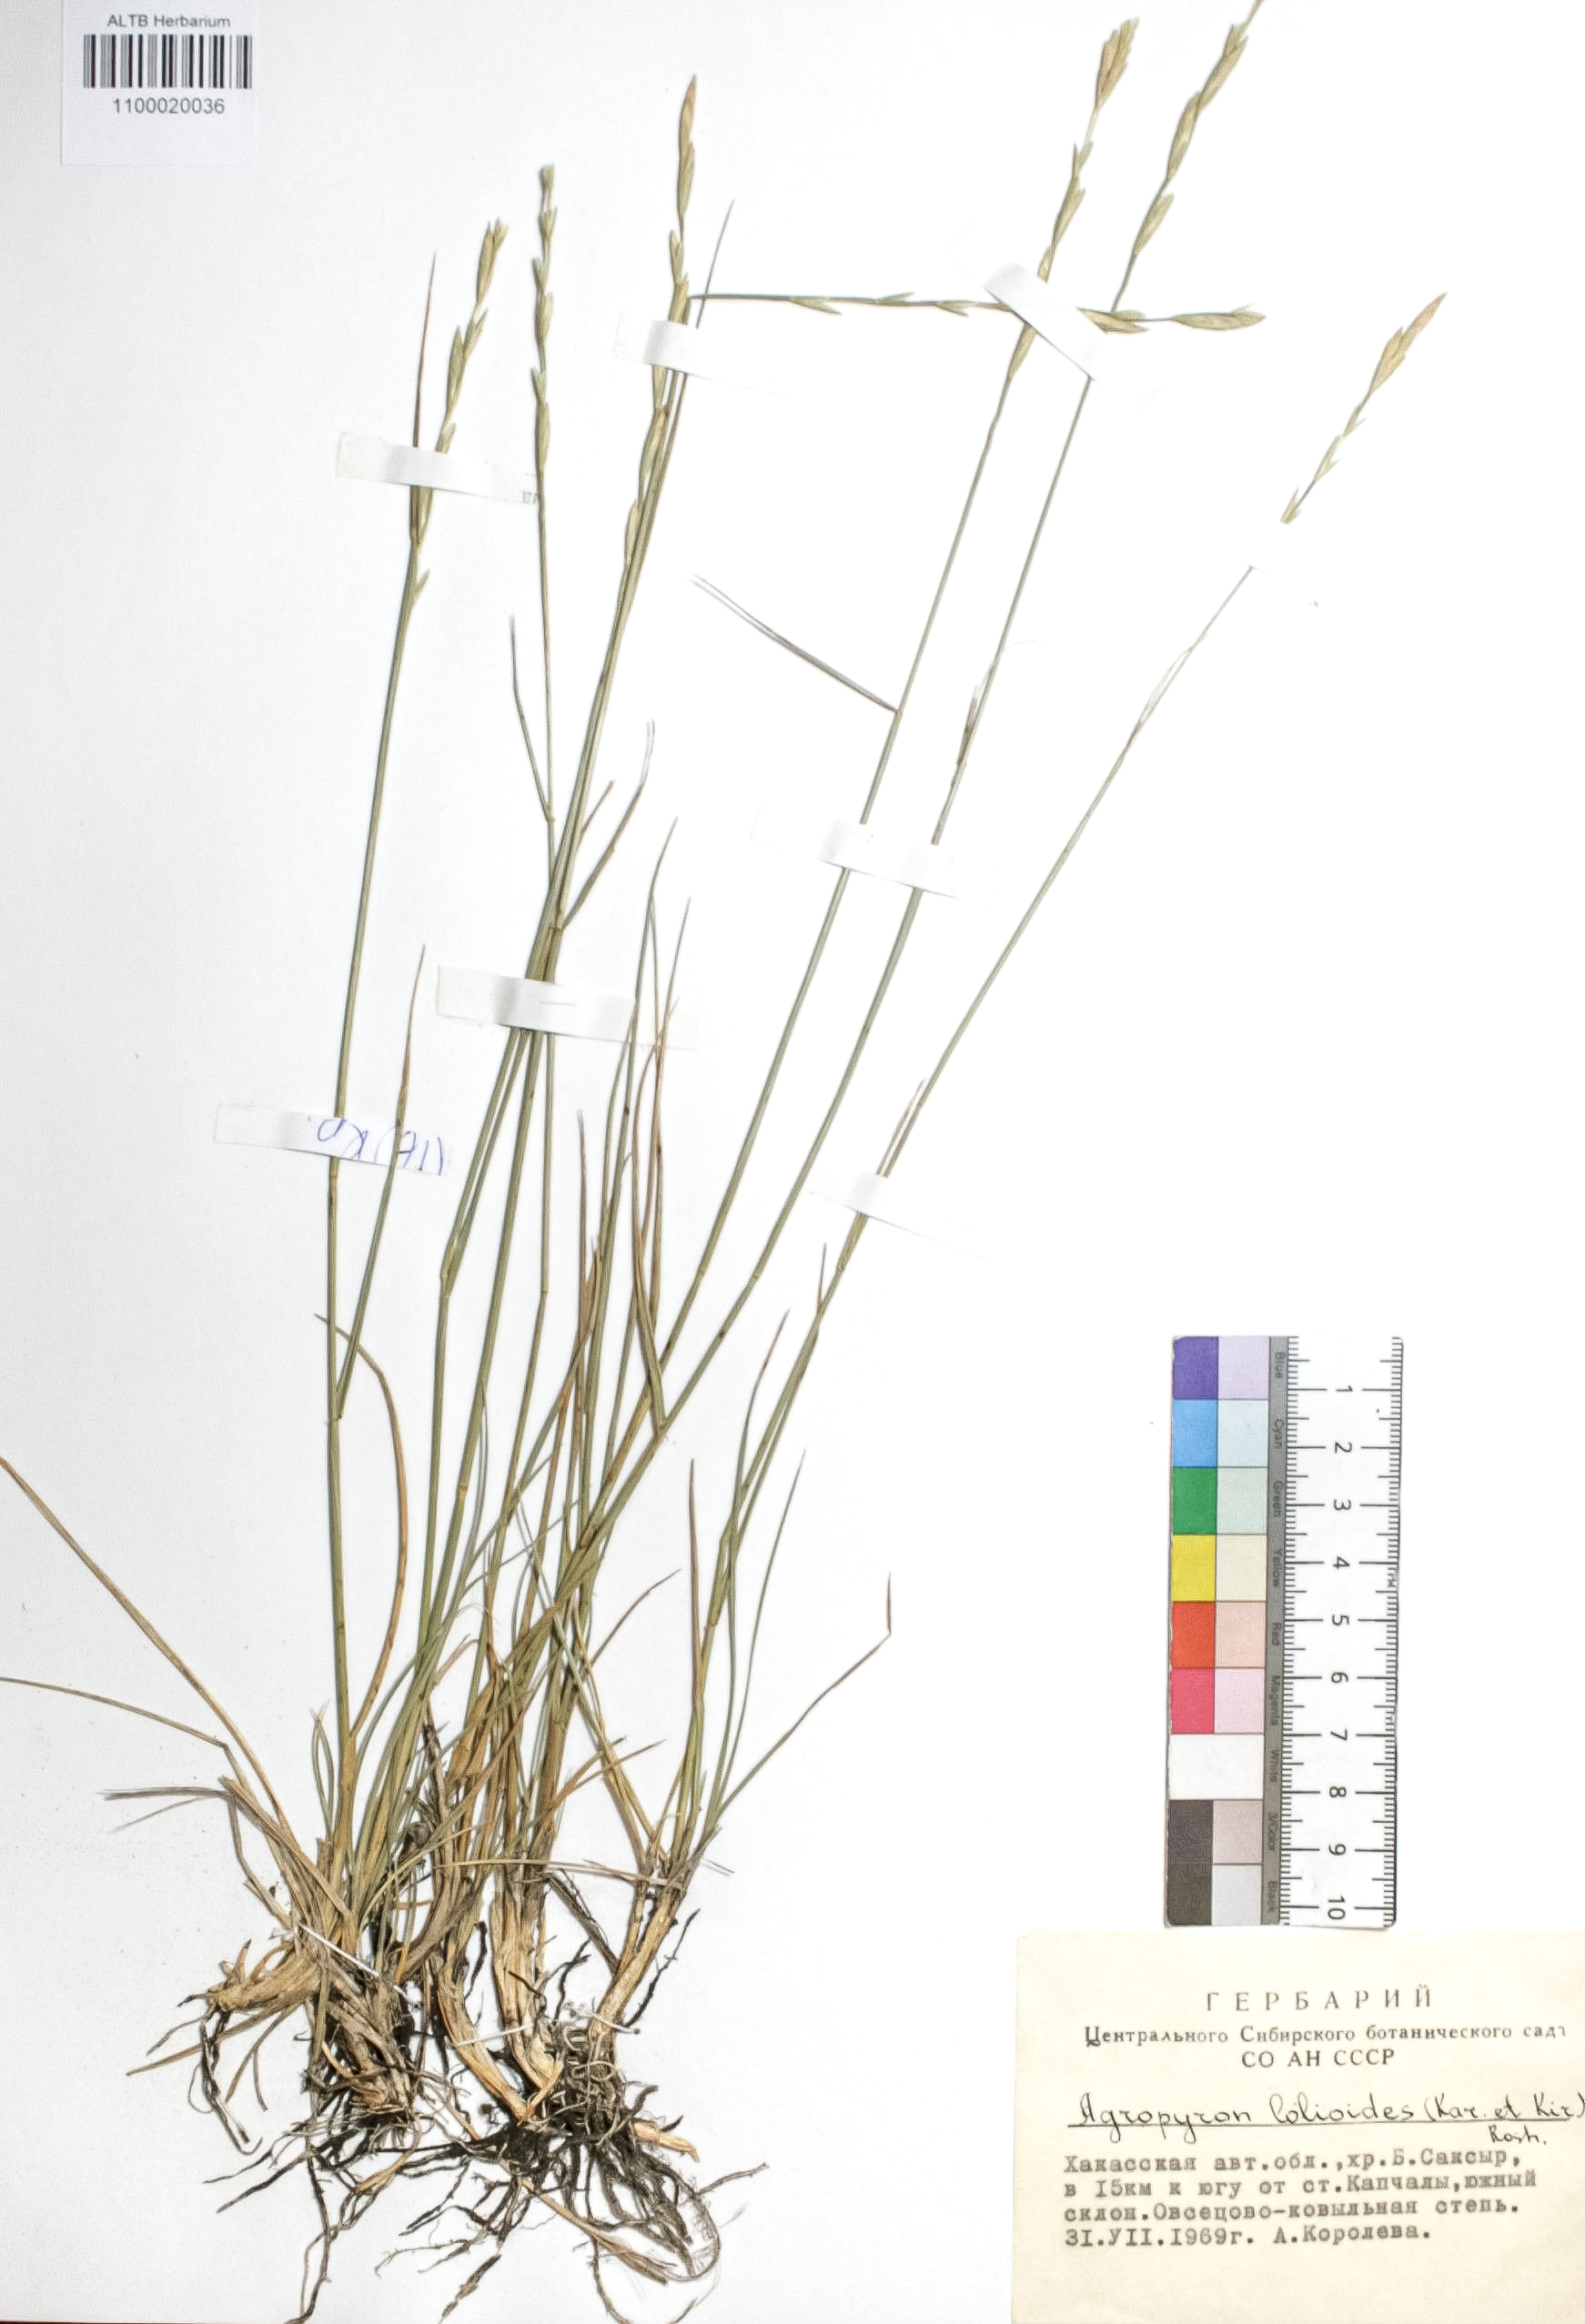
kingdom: Plantae
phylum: Tracheophyta
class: Liliopsida
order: Poales
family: Poaceae
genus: Agropyron
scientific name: Agropyron lolioides
